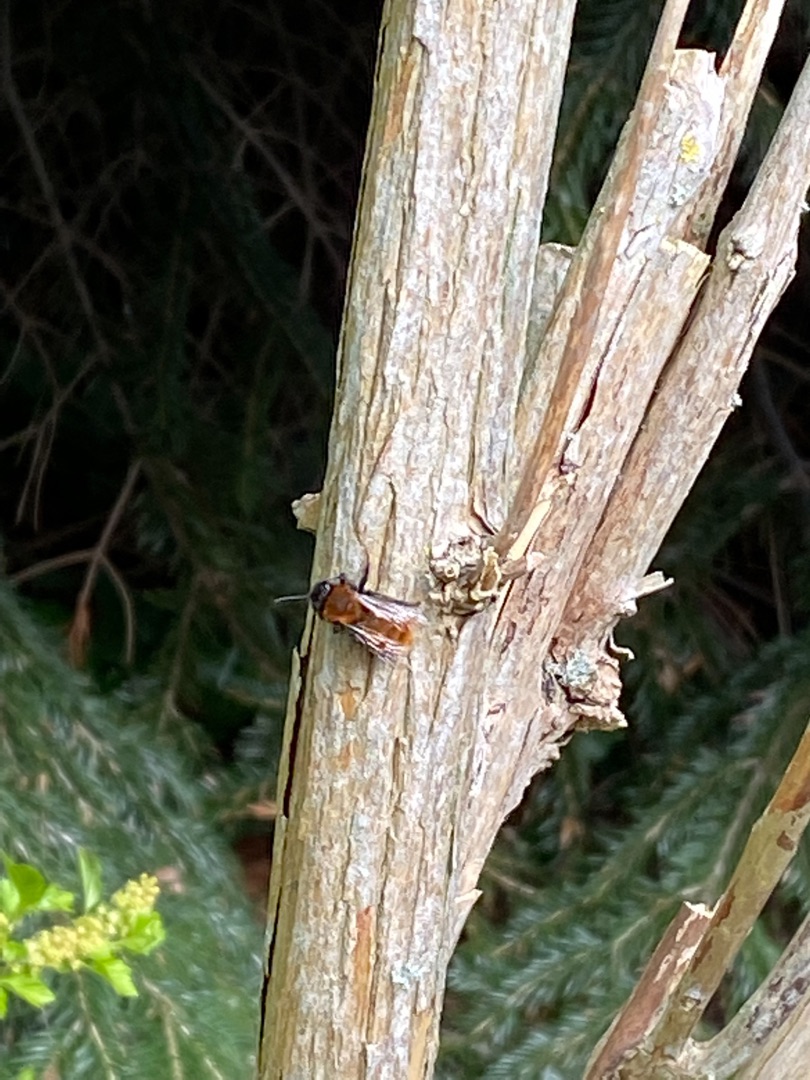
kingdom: Animalia
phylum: Arthropoda
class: Insecta
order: Hymenoptera
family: Andrenidae
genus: Andrena
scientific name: Andrena fulva
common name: Rødpelset jordbi
